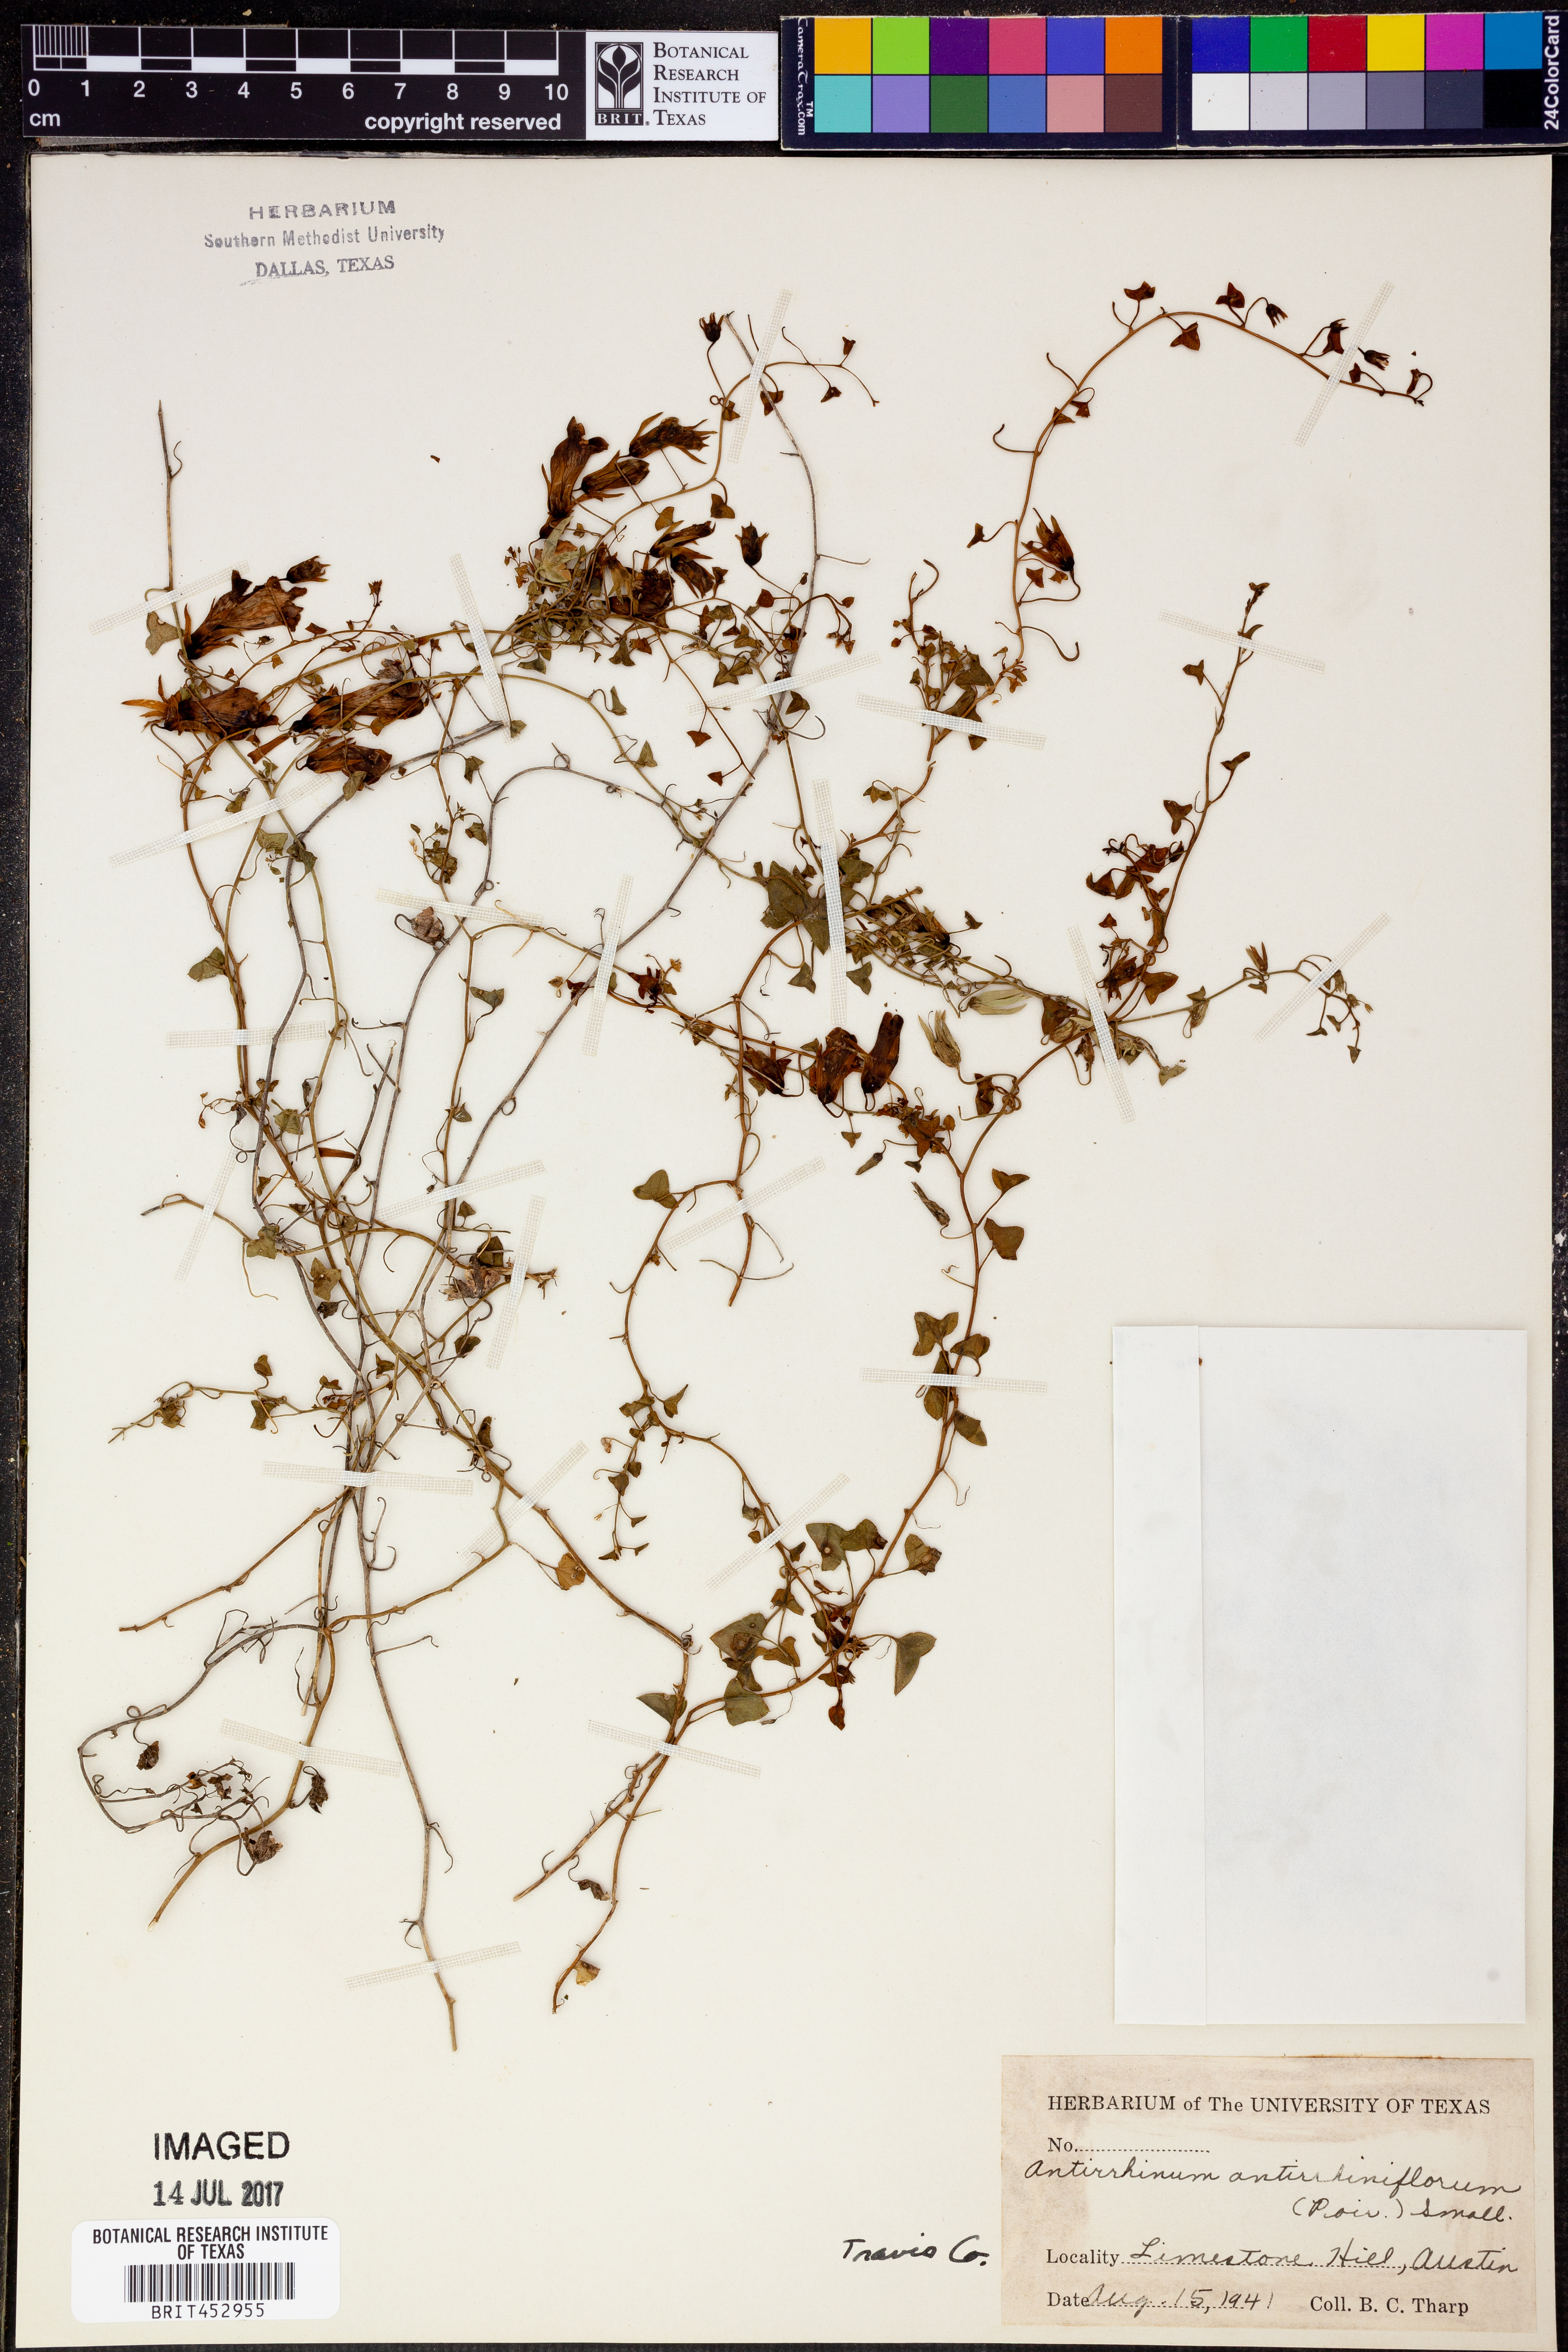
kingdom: Plantae
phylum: Tracheophyta
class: Magnoliopsida
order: Lamiales
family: Plantaginaceae
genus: Maurandella
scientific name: Maurandella antirrhiniflora
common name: Violet twining-snapdragon
